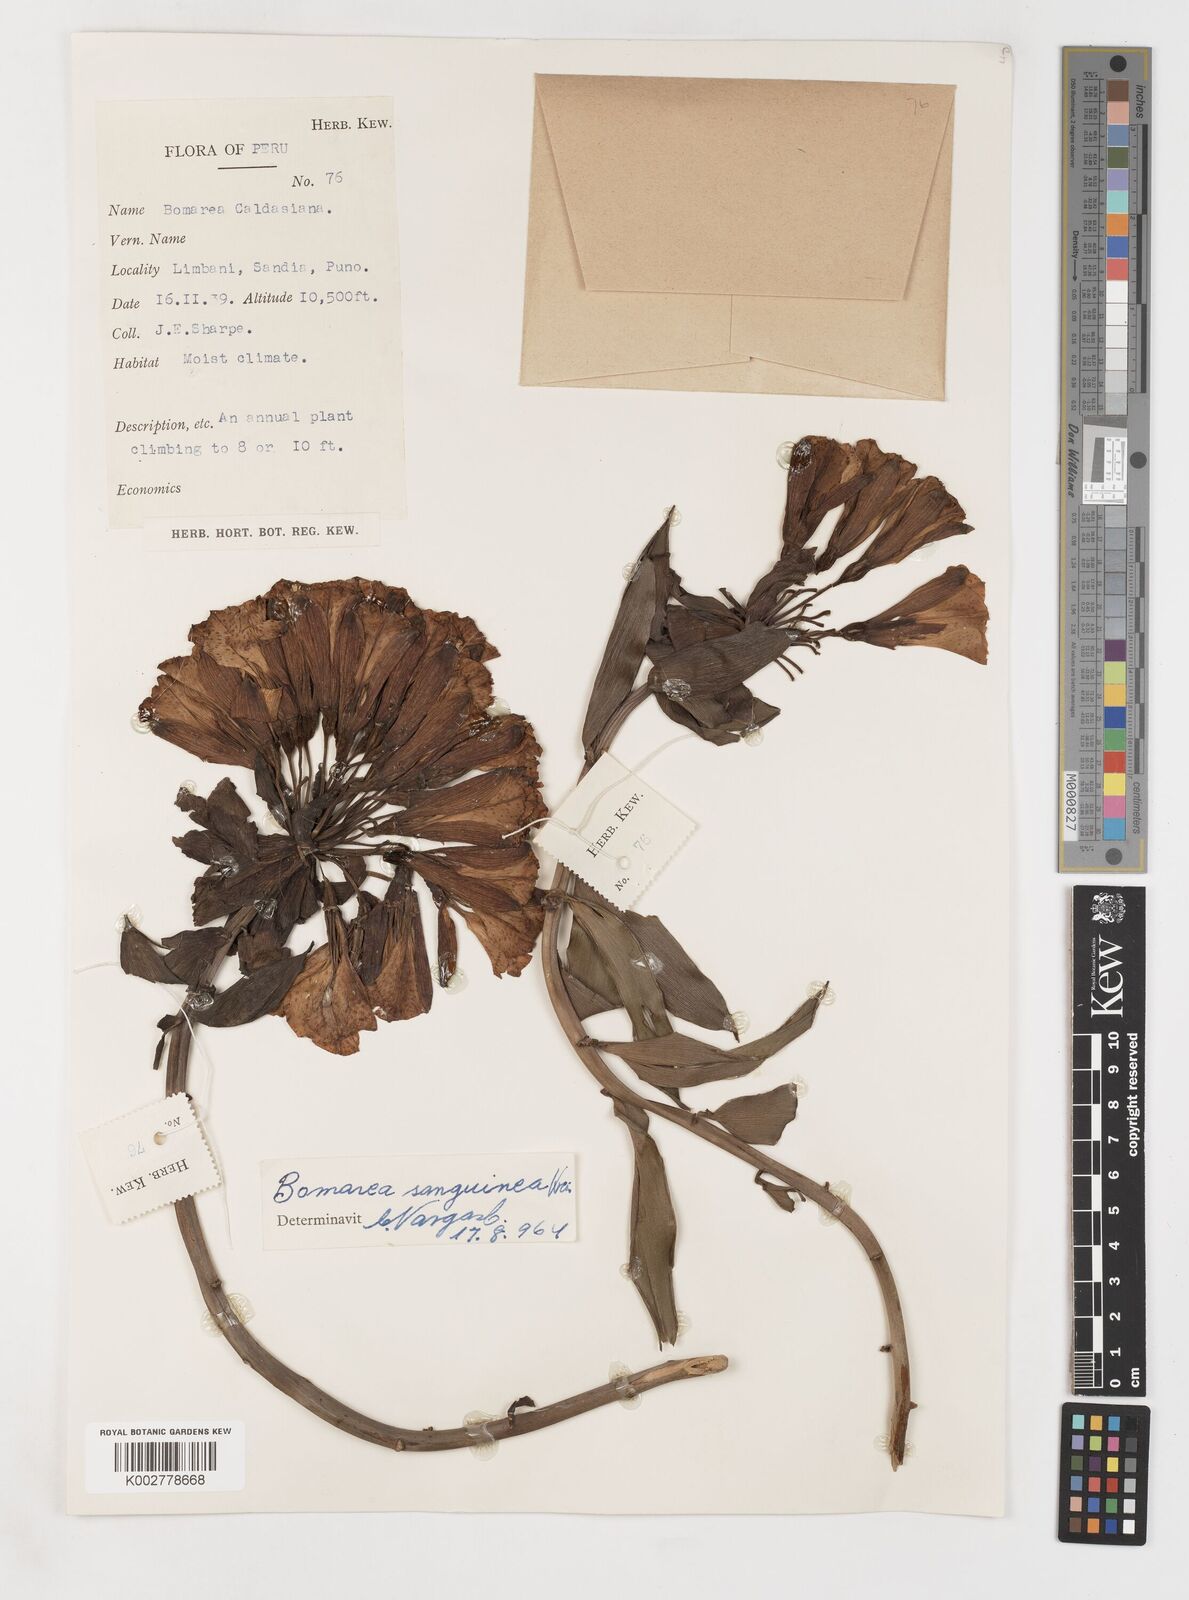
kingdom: Plantae
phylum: Tracheophyta
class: Liliopsida
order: Liliales
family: Alstroemeriaceae
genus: Bomarea
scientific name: Bomarea formosissima
